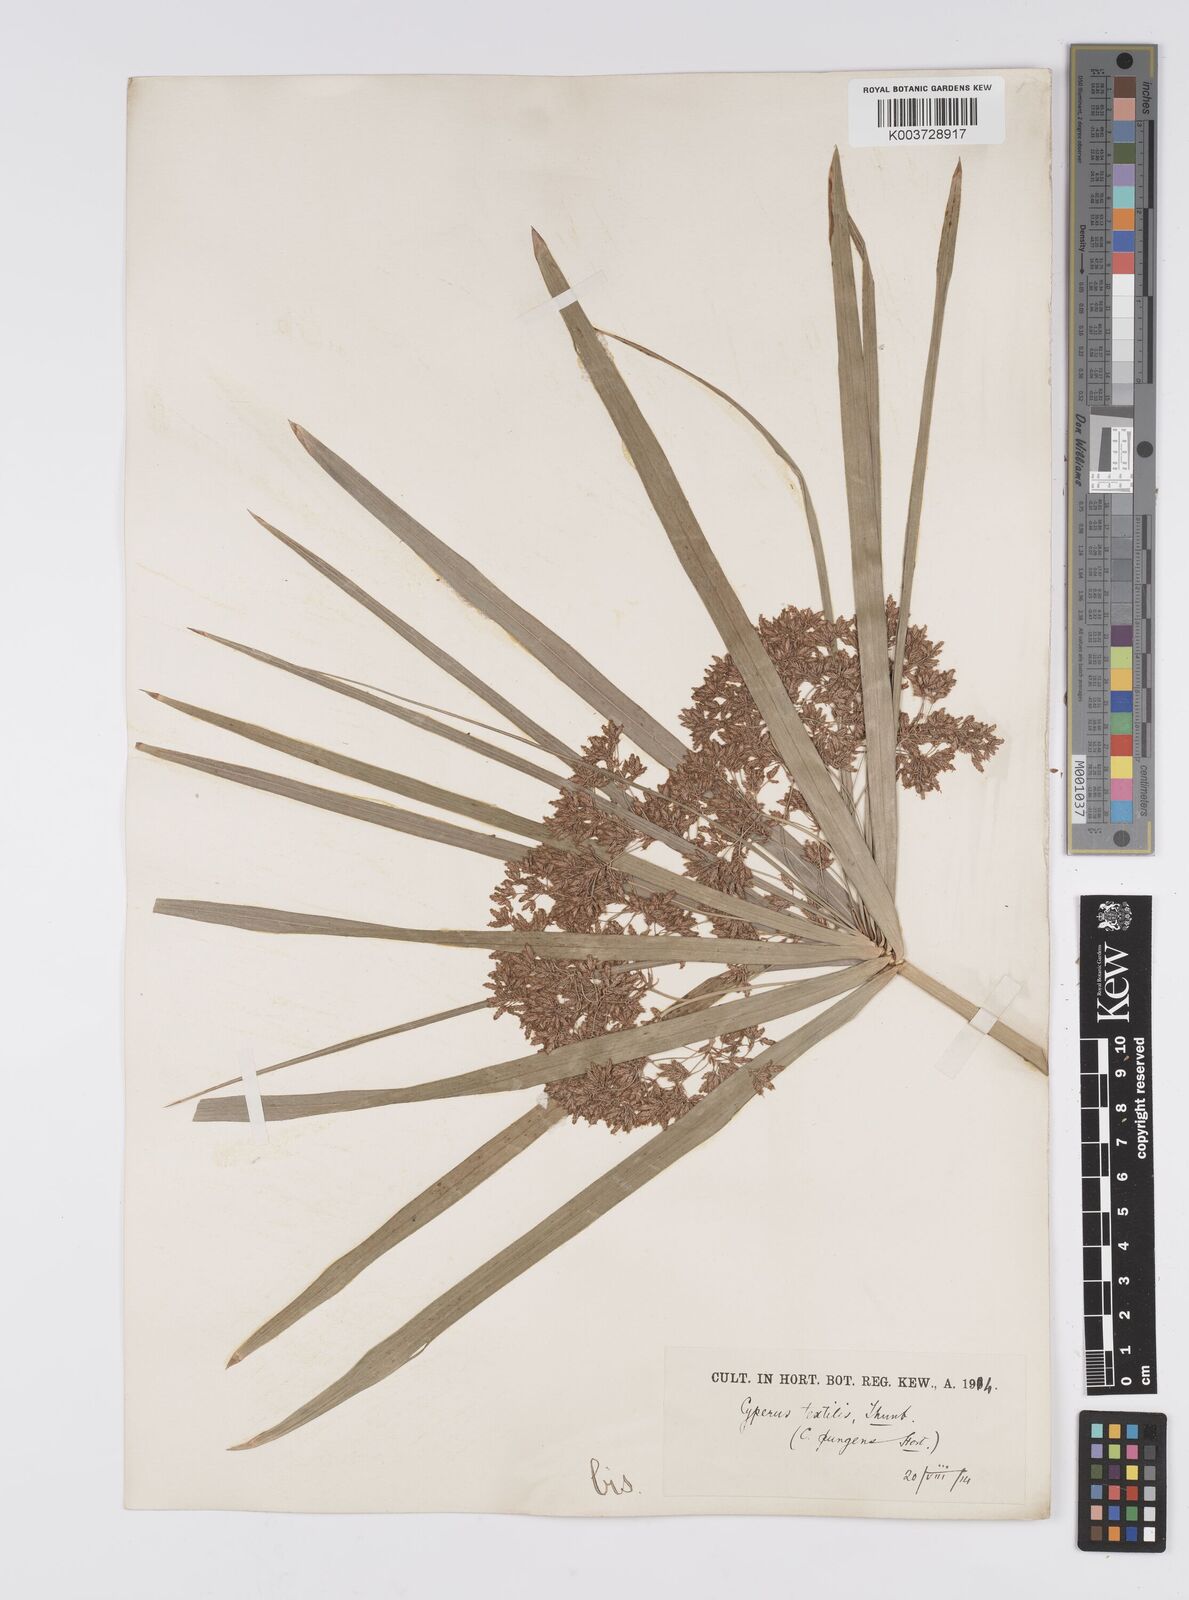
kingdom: Plantae
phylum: Tracheophyta
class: Liliopsida
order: Poales
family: Cyperaceae
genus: Cyperus
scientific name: Cyperus alternifolius
